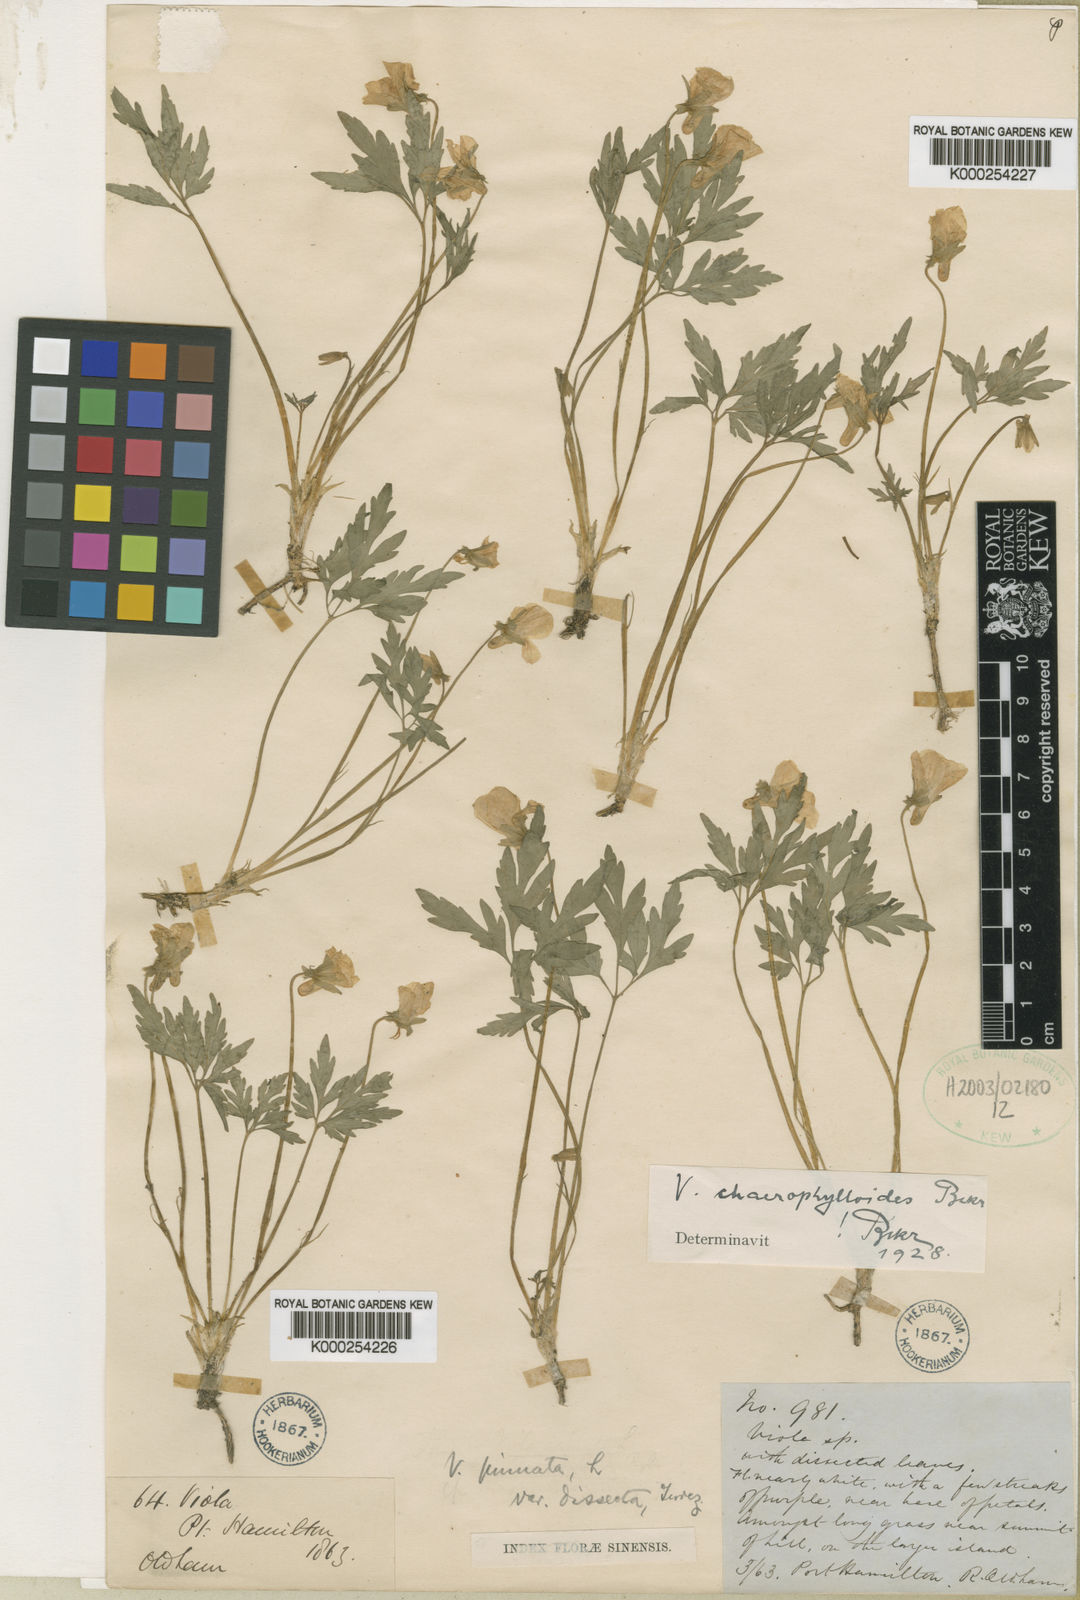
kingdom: Plantae
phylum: Tracheophyta
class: Magnoliopsida
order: Malpighiales
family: Violaceae
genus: Viola
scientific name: Viola
